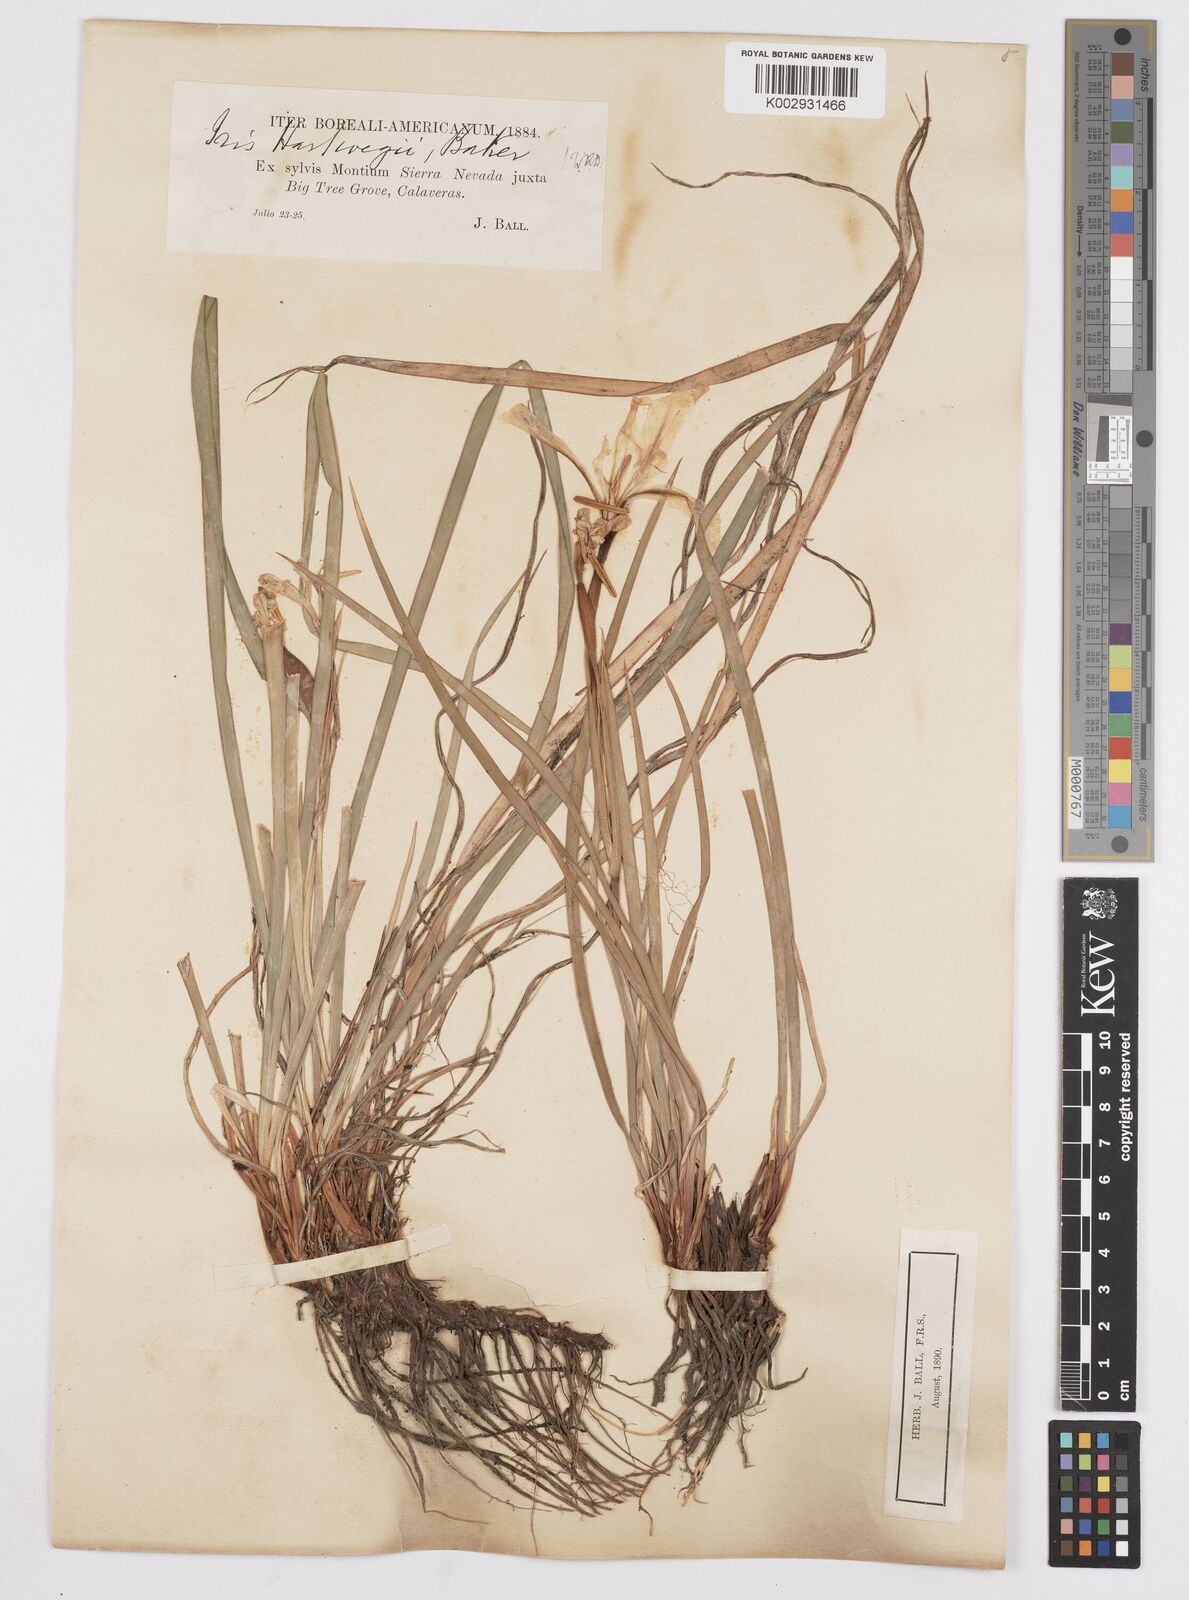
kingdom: Plantae
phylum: Tracheophyta
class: Liliopsida
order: Asparagales
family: Iridaceae
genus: Iris
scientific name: Iris hartwegii
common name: Sierra iris
